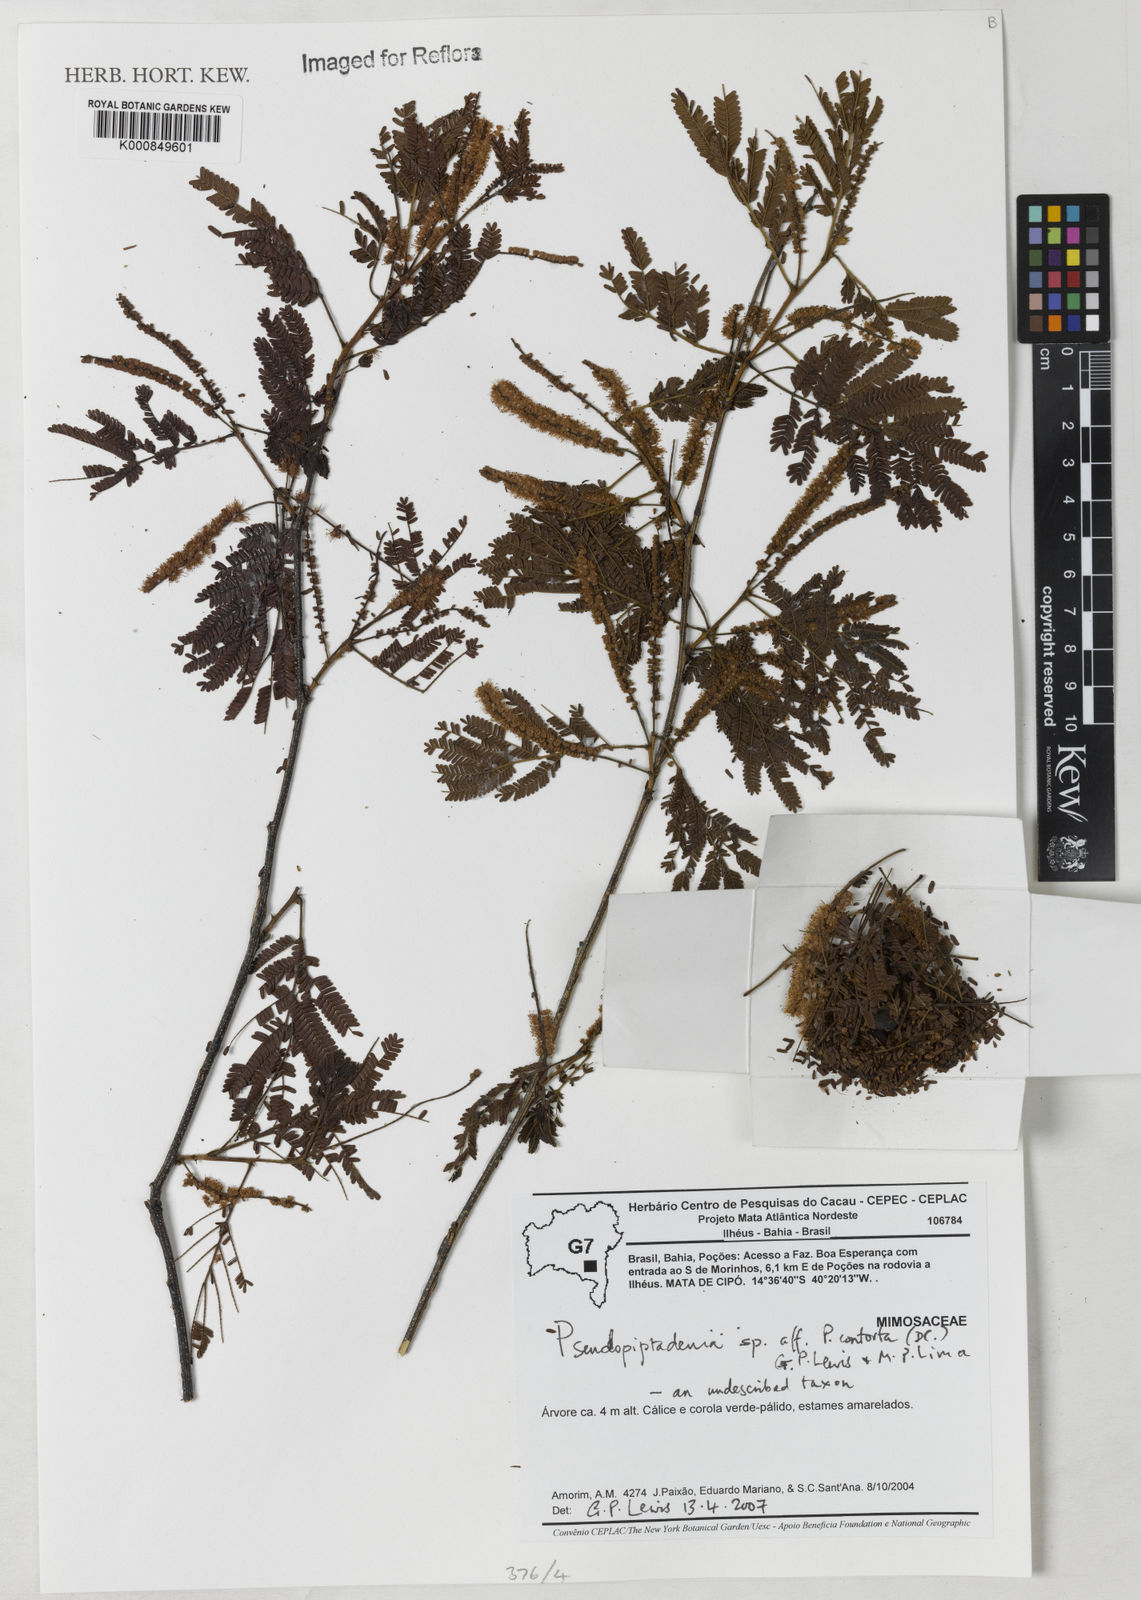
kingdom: Plantae
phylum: Tracheophyta
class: Magnoliopsida
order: Fabales
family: Fabaceae
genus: Pseudopiptadenia
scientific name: Pseudopiptadenia
